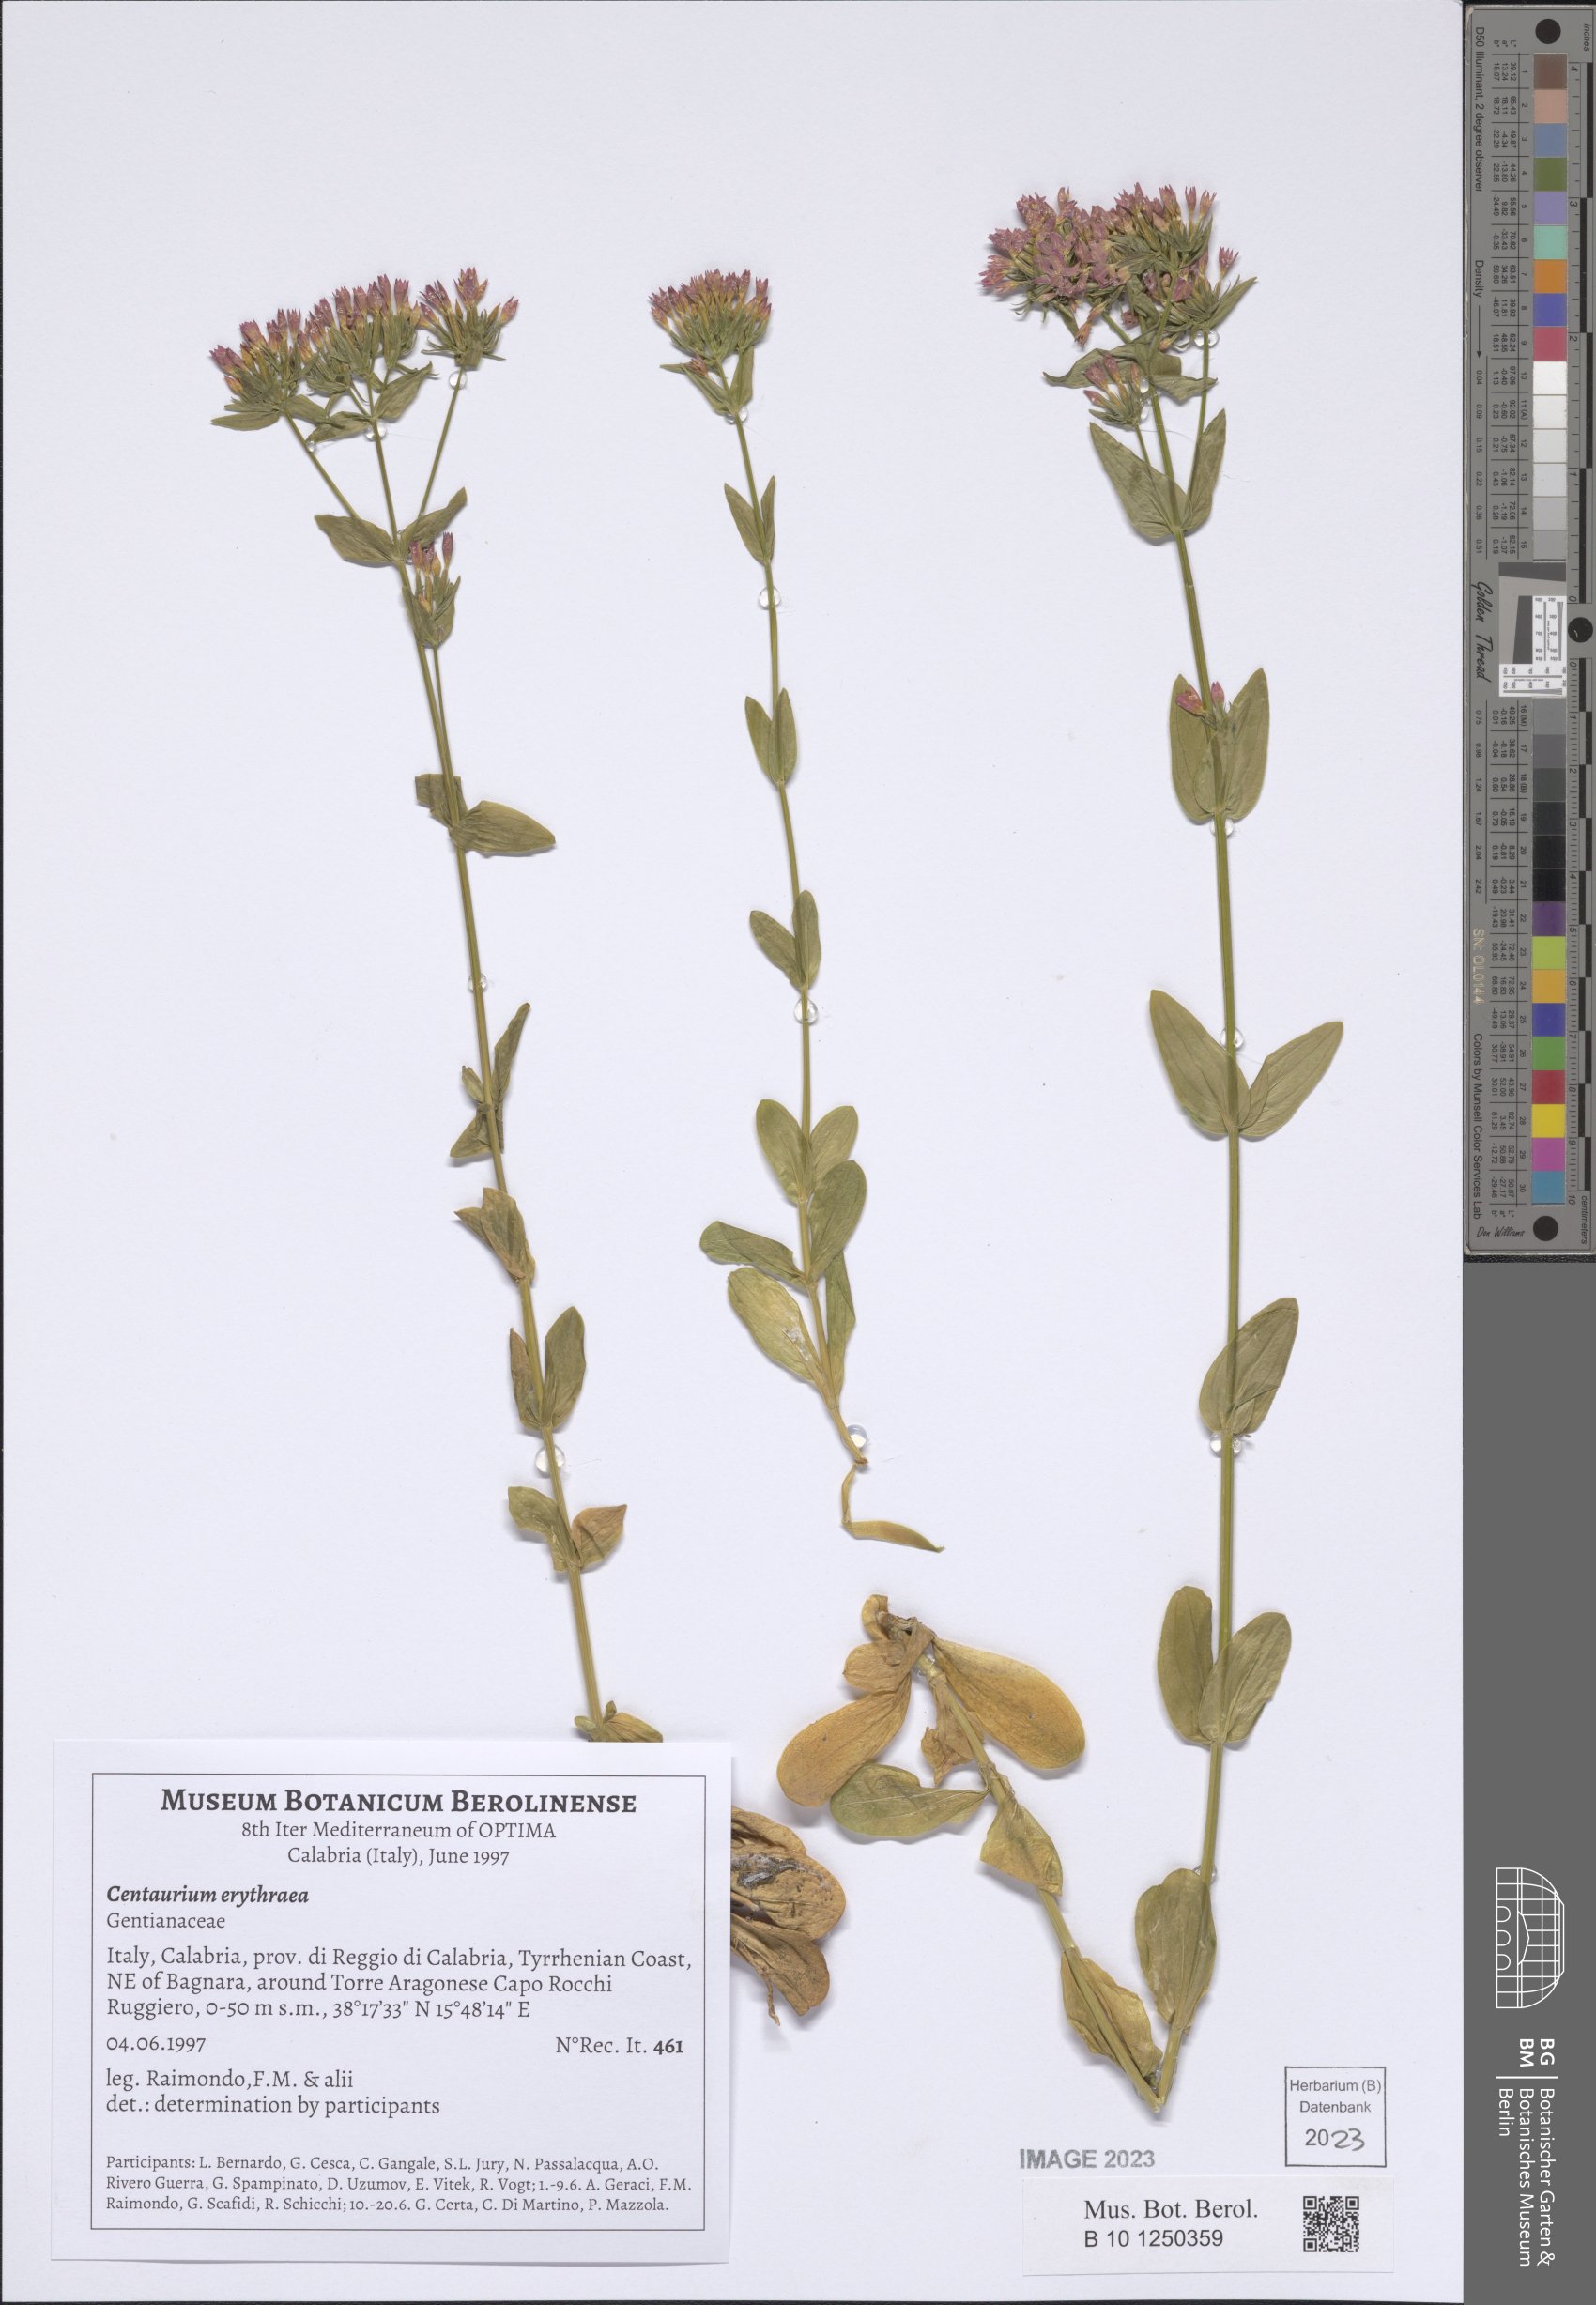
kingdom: Plantae
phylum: Tracheophyta
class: Magnoliopsida
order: Gentianales
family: Gentianaceae
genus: Centaurium
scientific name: Centaurium erythraea
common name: Common centaury
